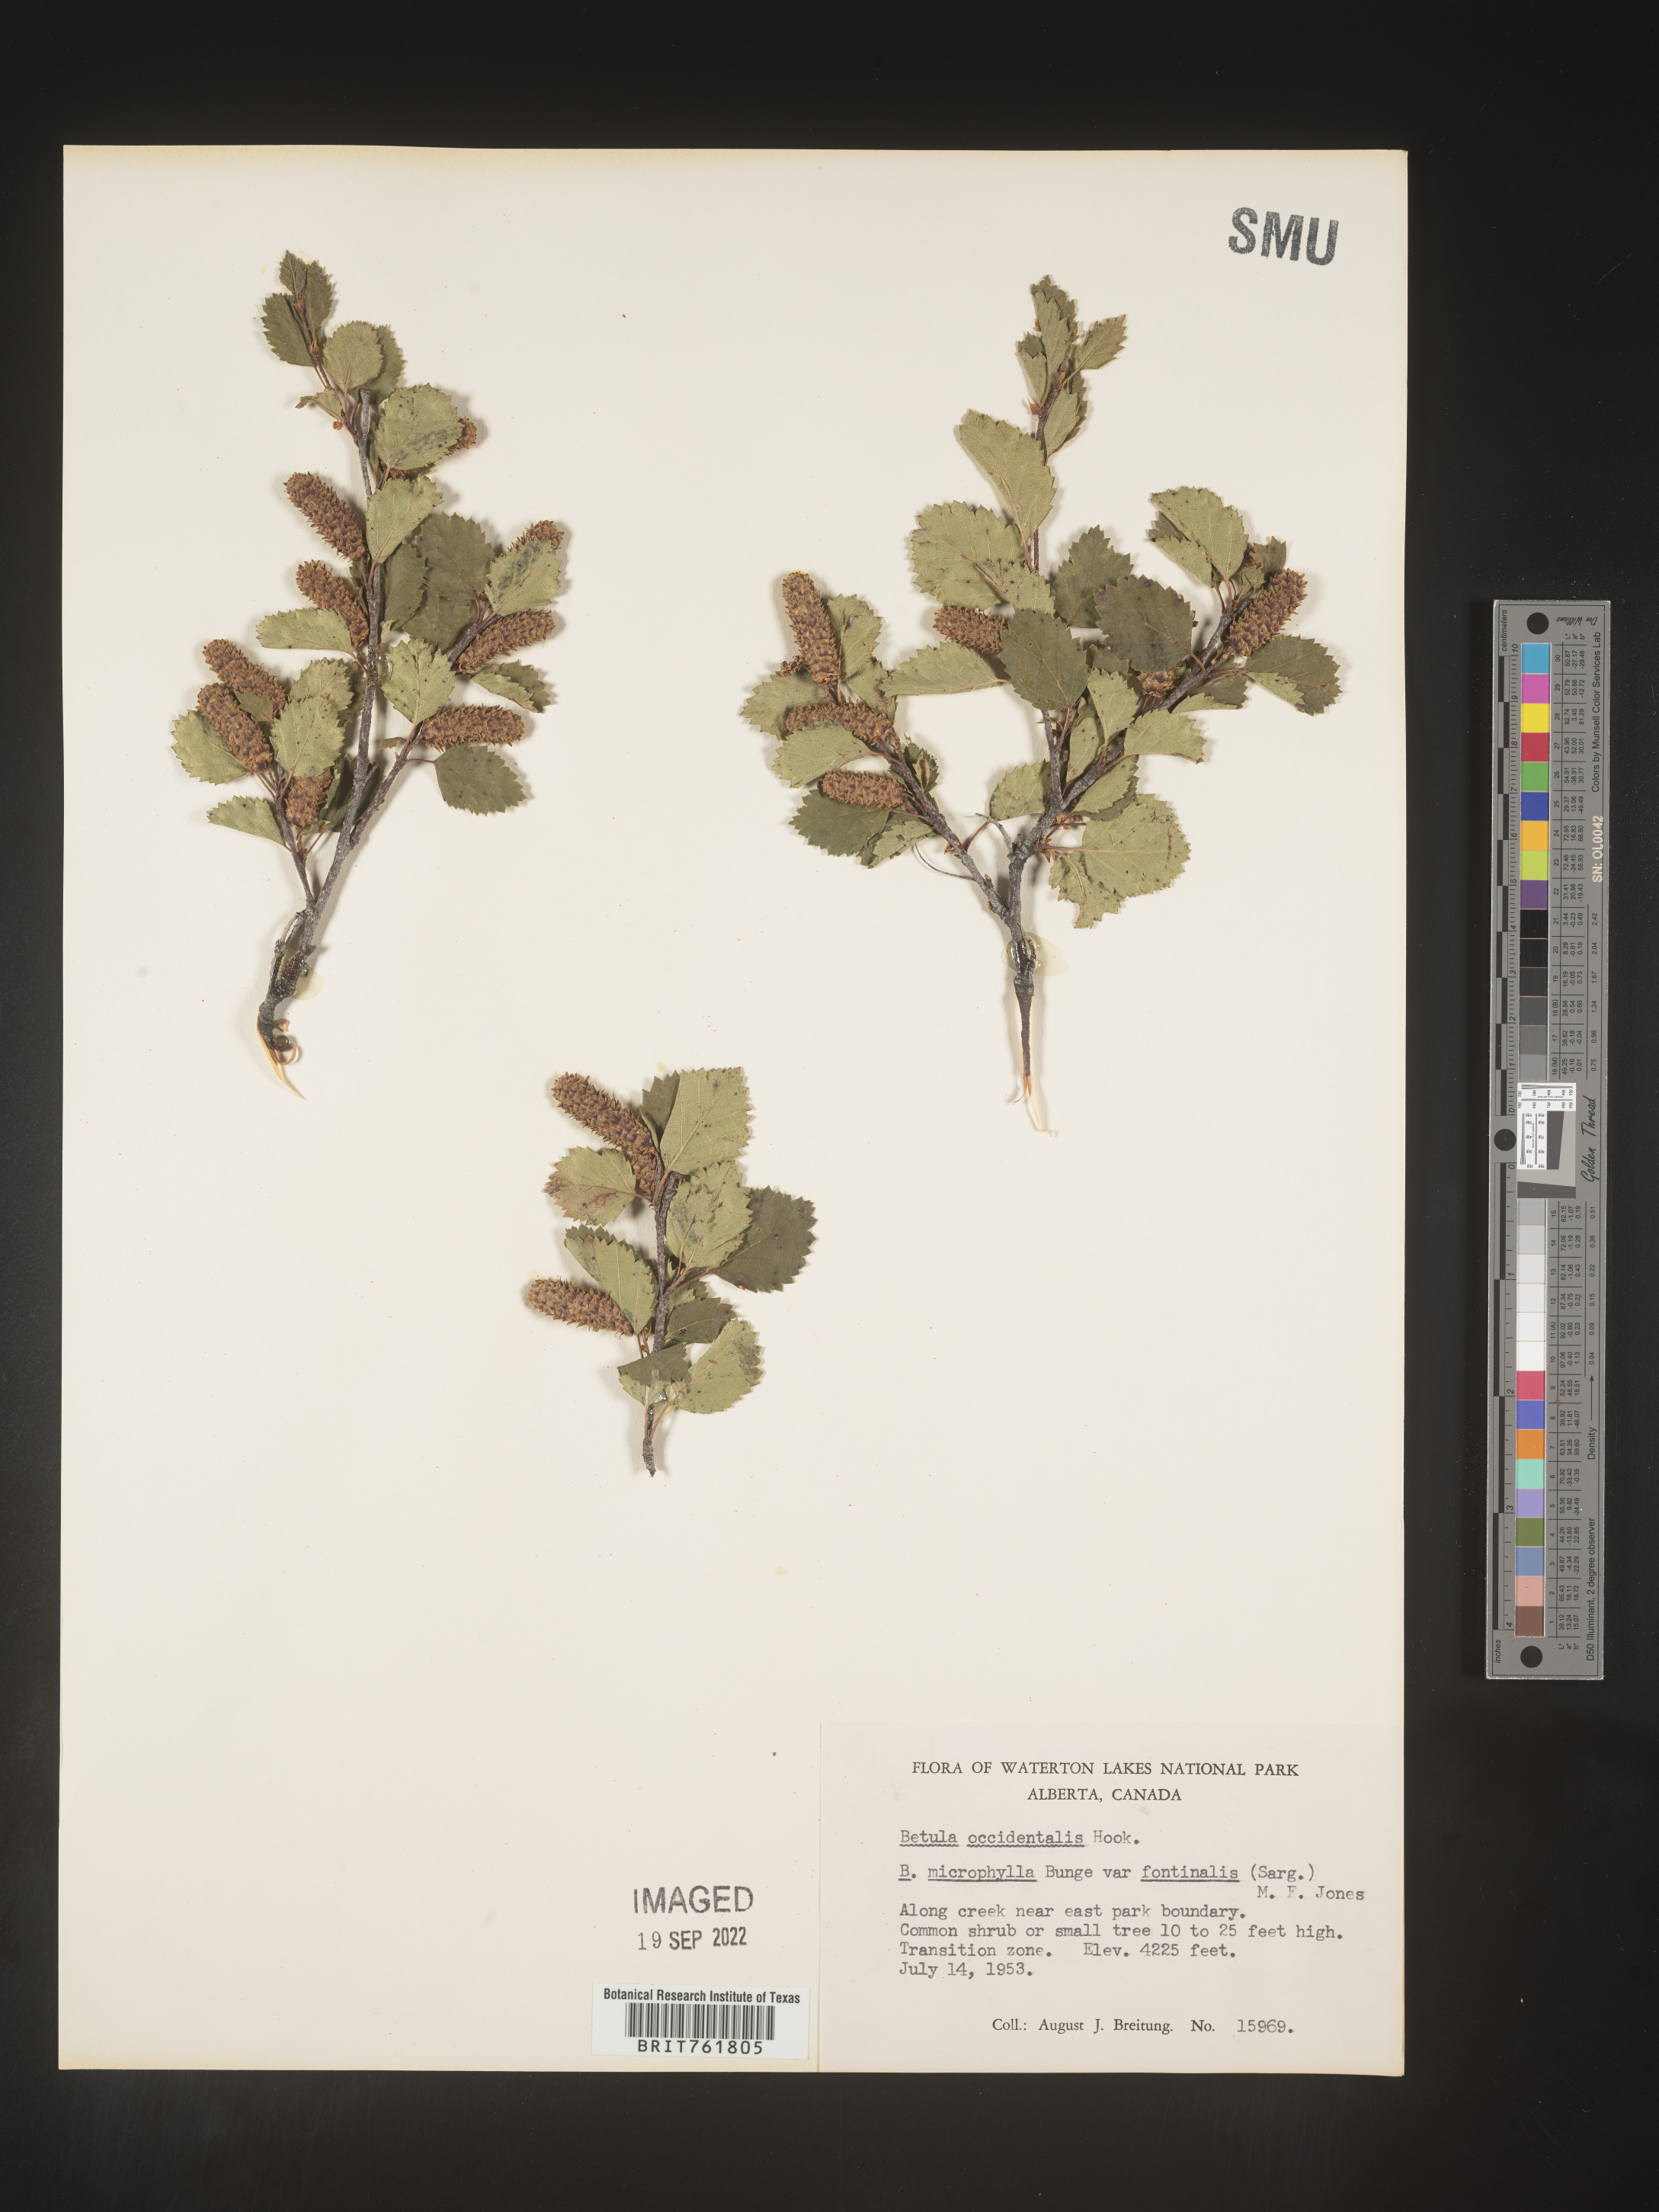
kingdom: Plantae
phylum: Tracheophyta
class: Magnoliopsida
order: Fagales
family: Betulaceae
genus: Betula
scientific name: Betula occidentalis
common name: River birch
